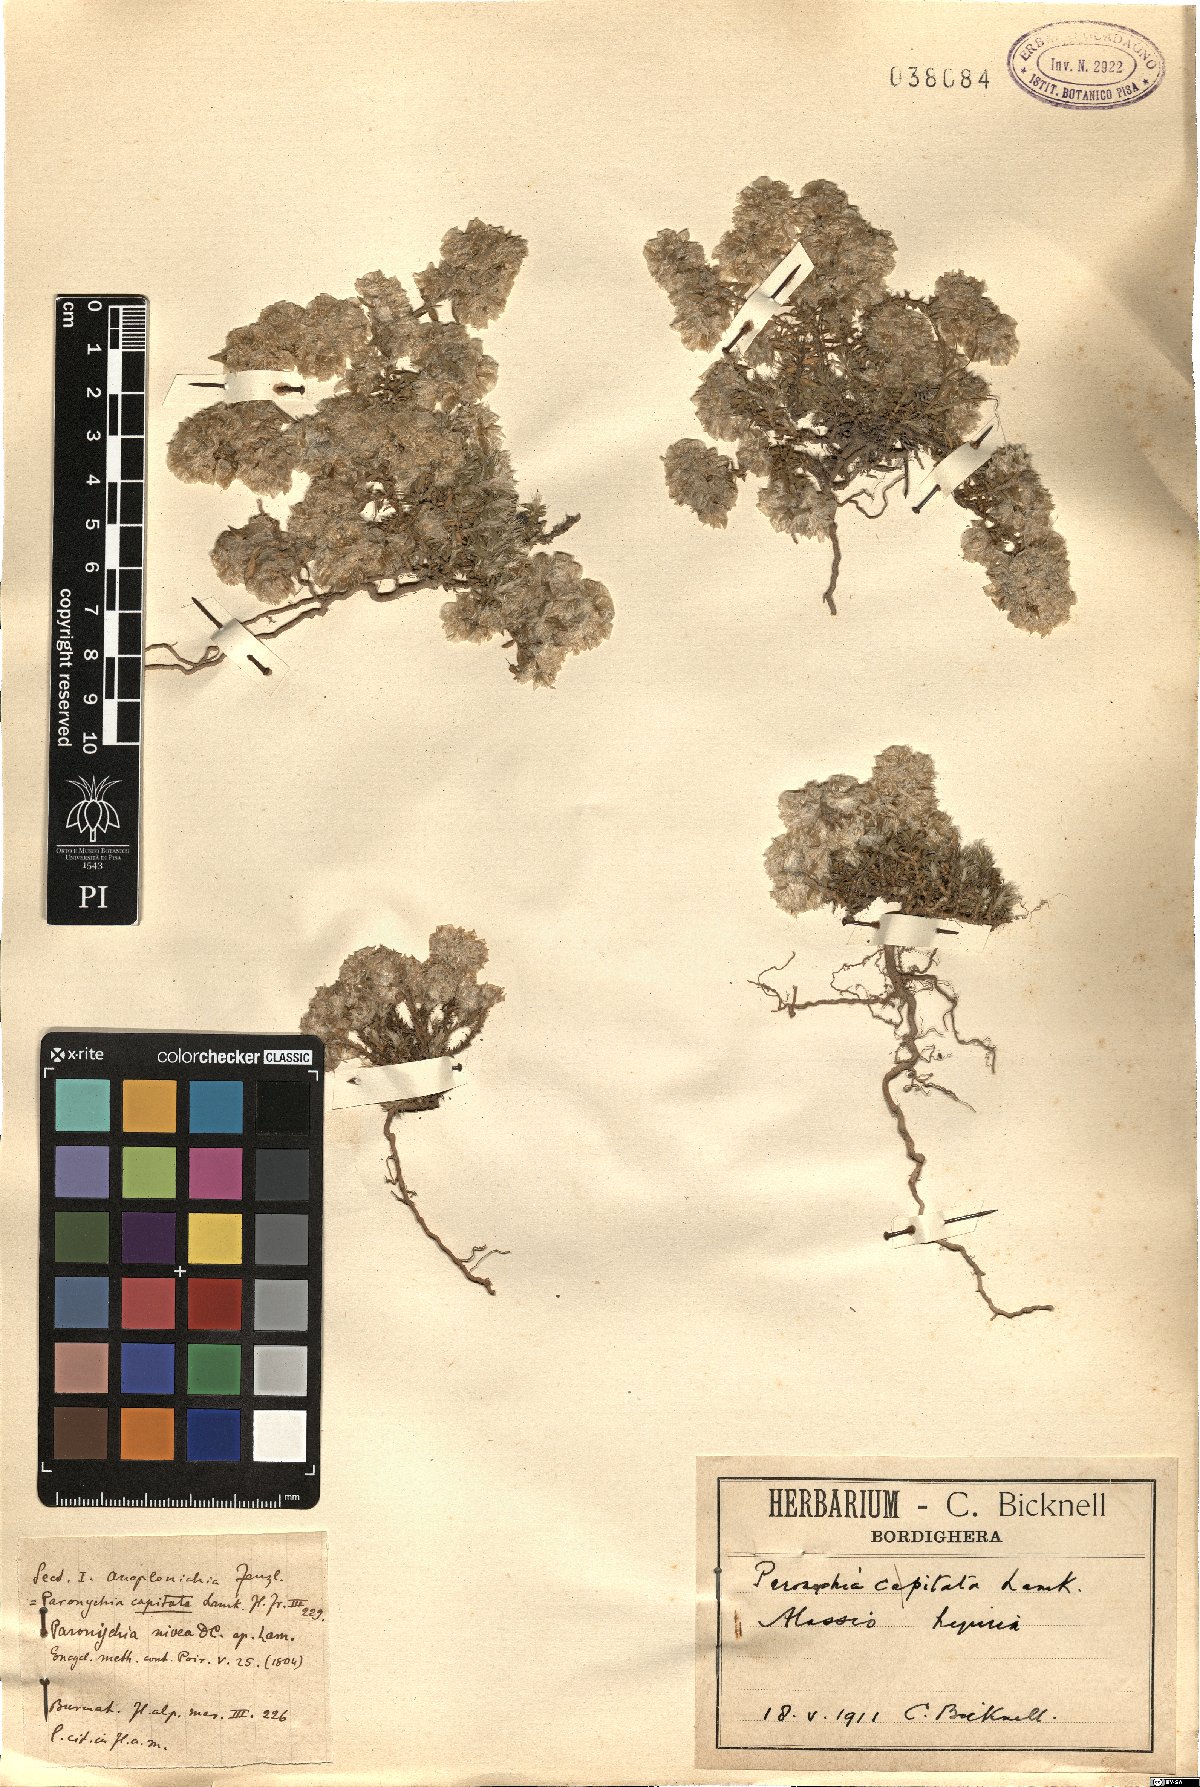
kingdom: Plantae
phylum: Tracheophyta
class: Magnoliopsida
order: Caryophyllales
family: Caryophyllaceae
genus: Paronychia
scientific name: Paronychia capitata
